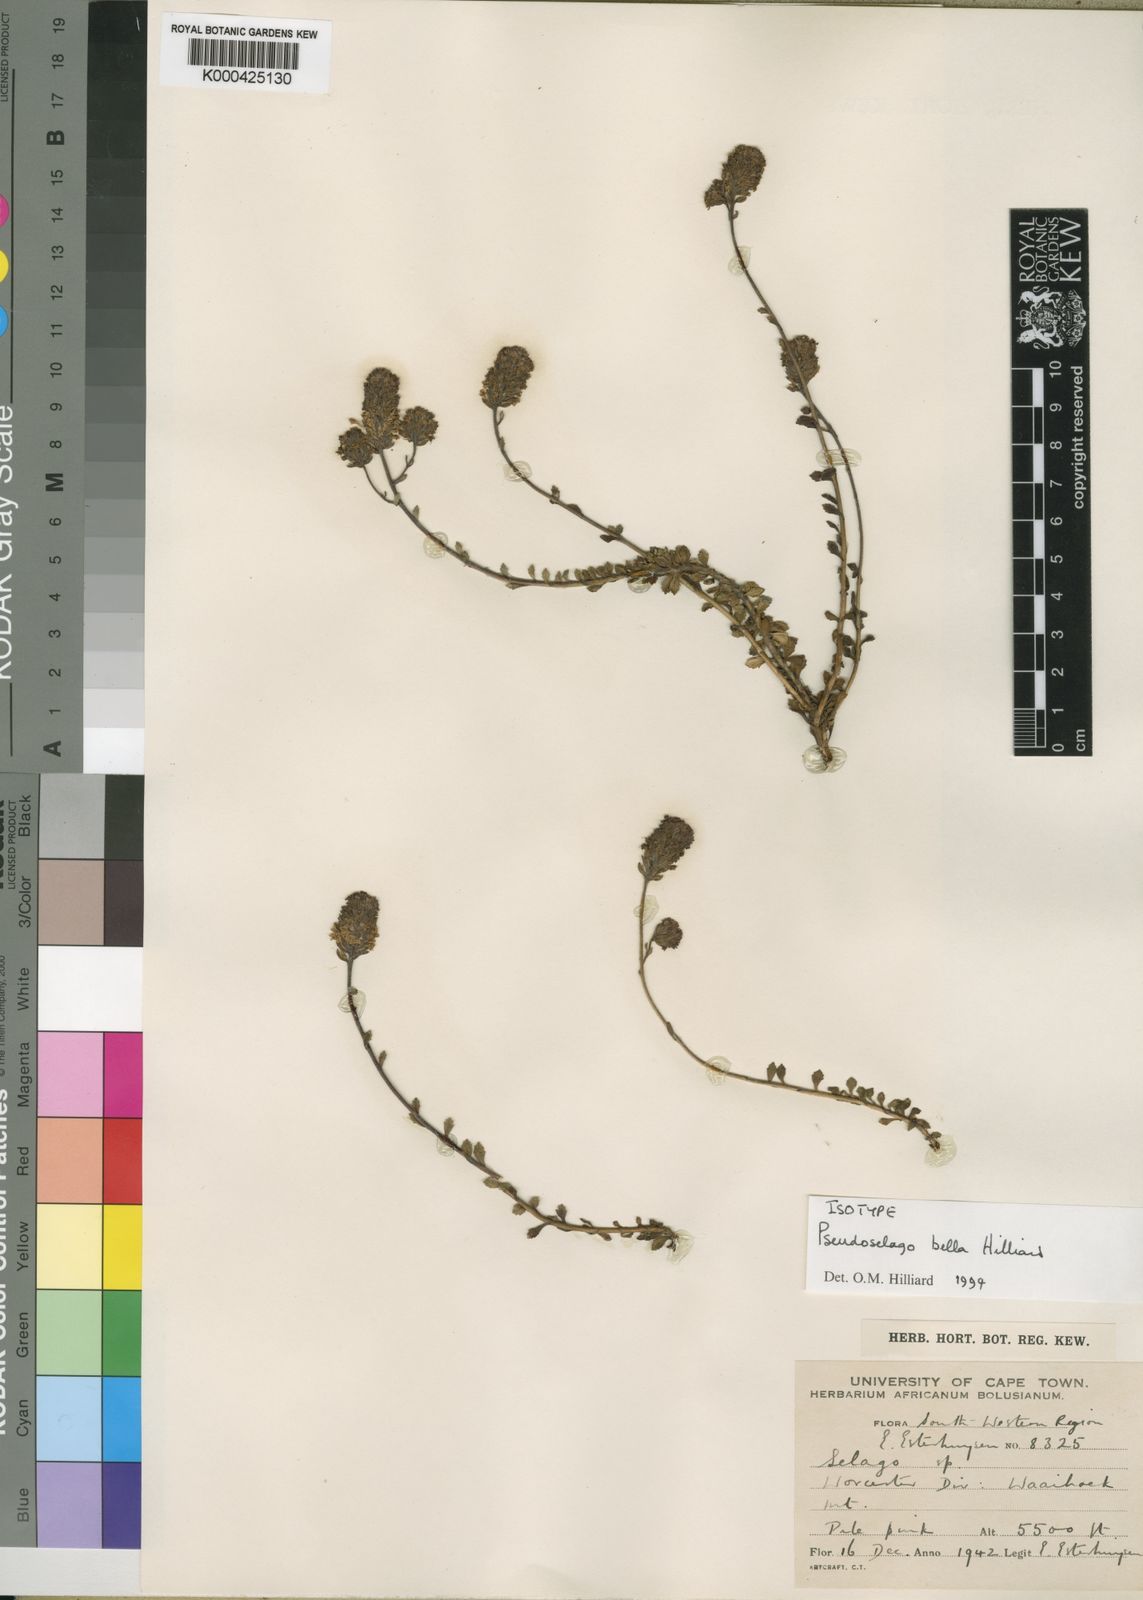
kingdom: Plantae
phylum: Tracheophyta
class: Magnoliopsida
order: Lamiales
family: Scrophulariaceae
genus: Pseudoselago
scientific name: Pseudoselago bella
